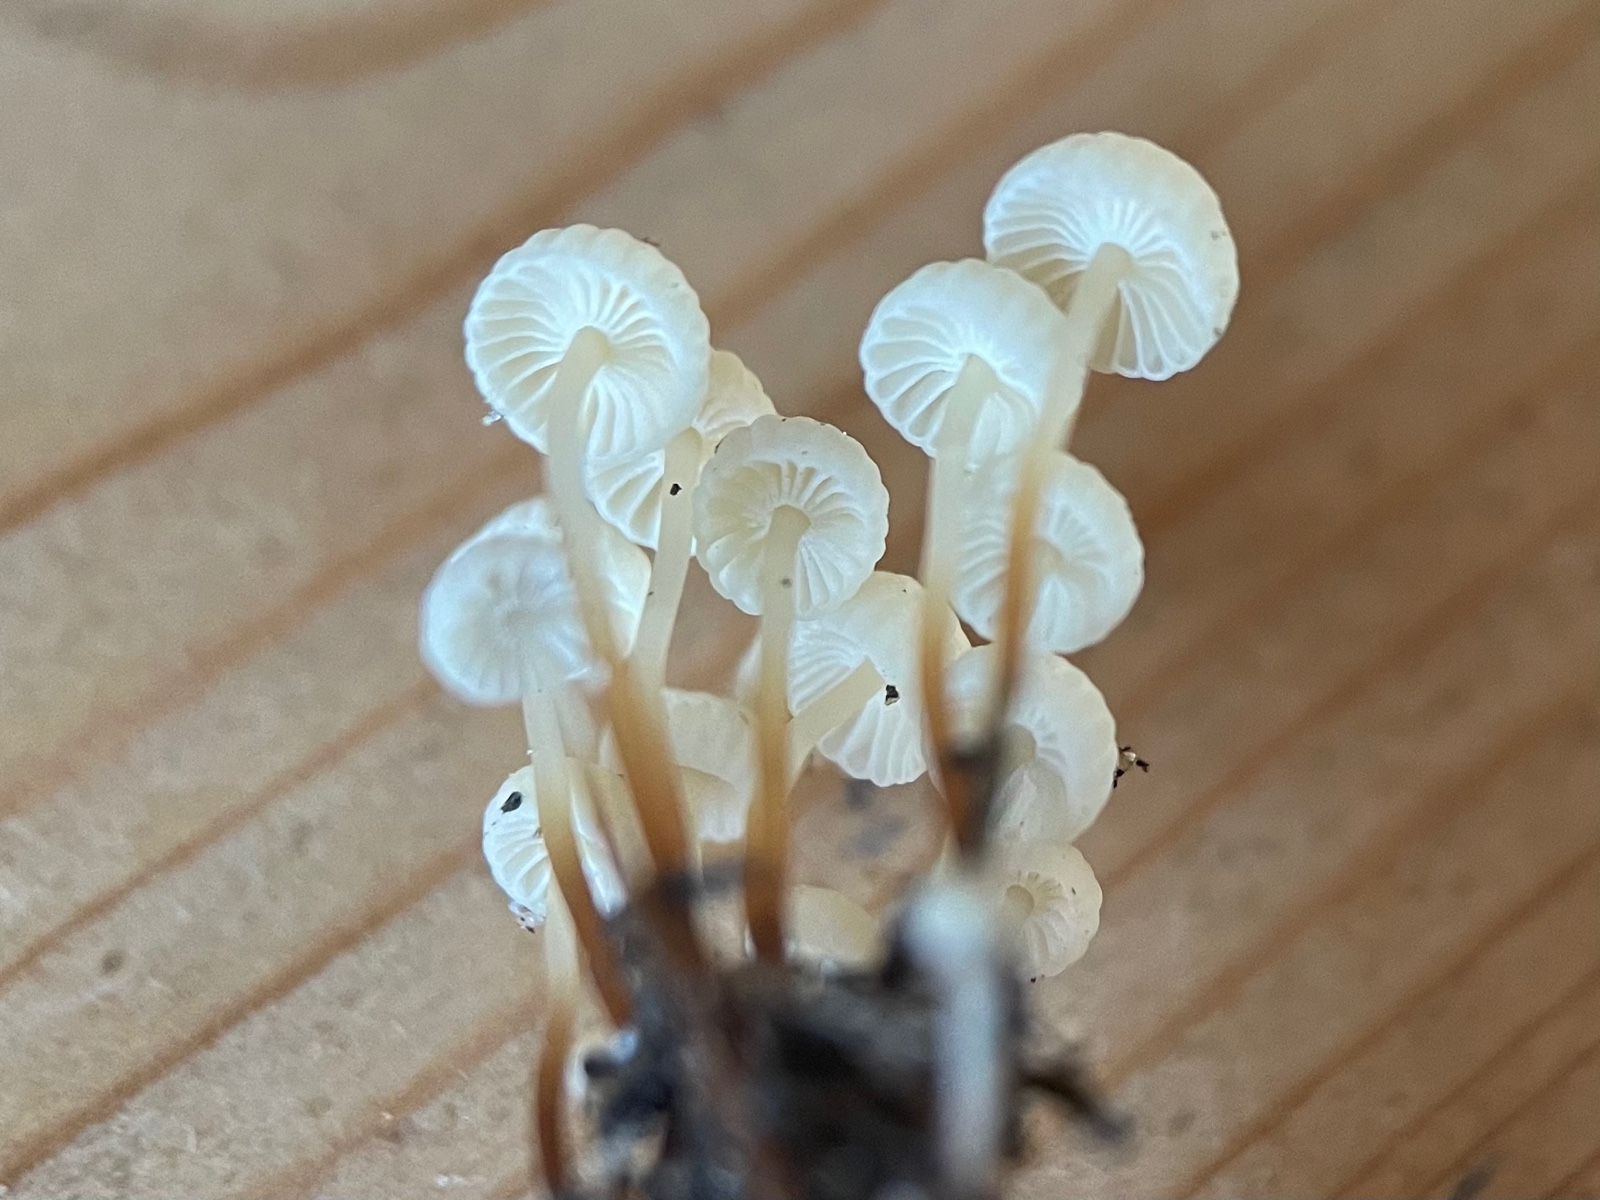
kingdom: Fungi
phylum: Basidiomycota
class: Agaricomycetes
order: Agaricales
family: Marasmiaceae
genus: Marasmius
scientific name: Marasmius rotula
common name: hjul-bruskhat
